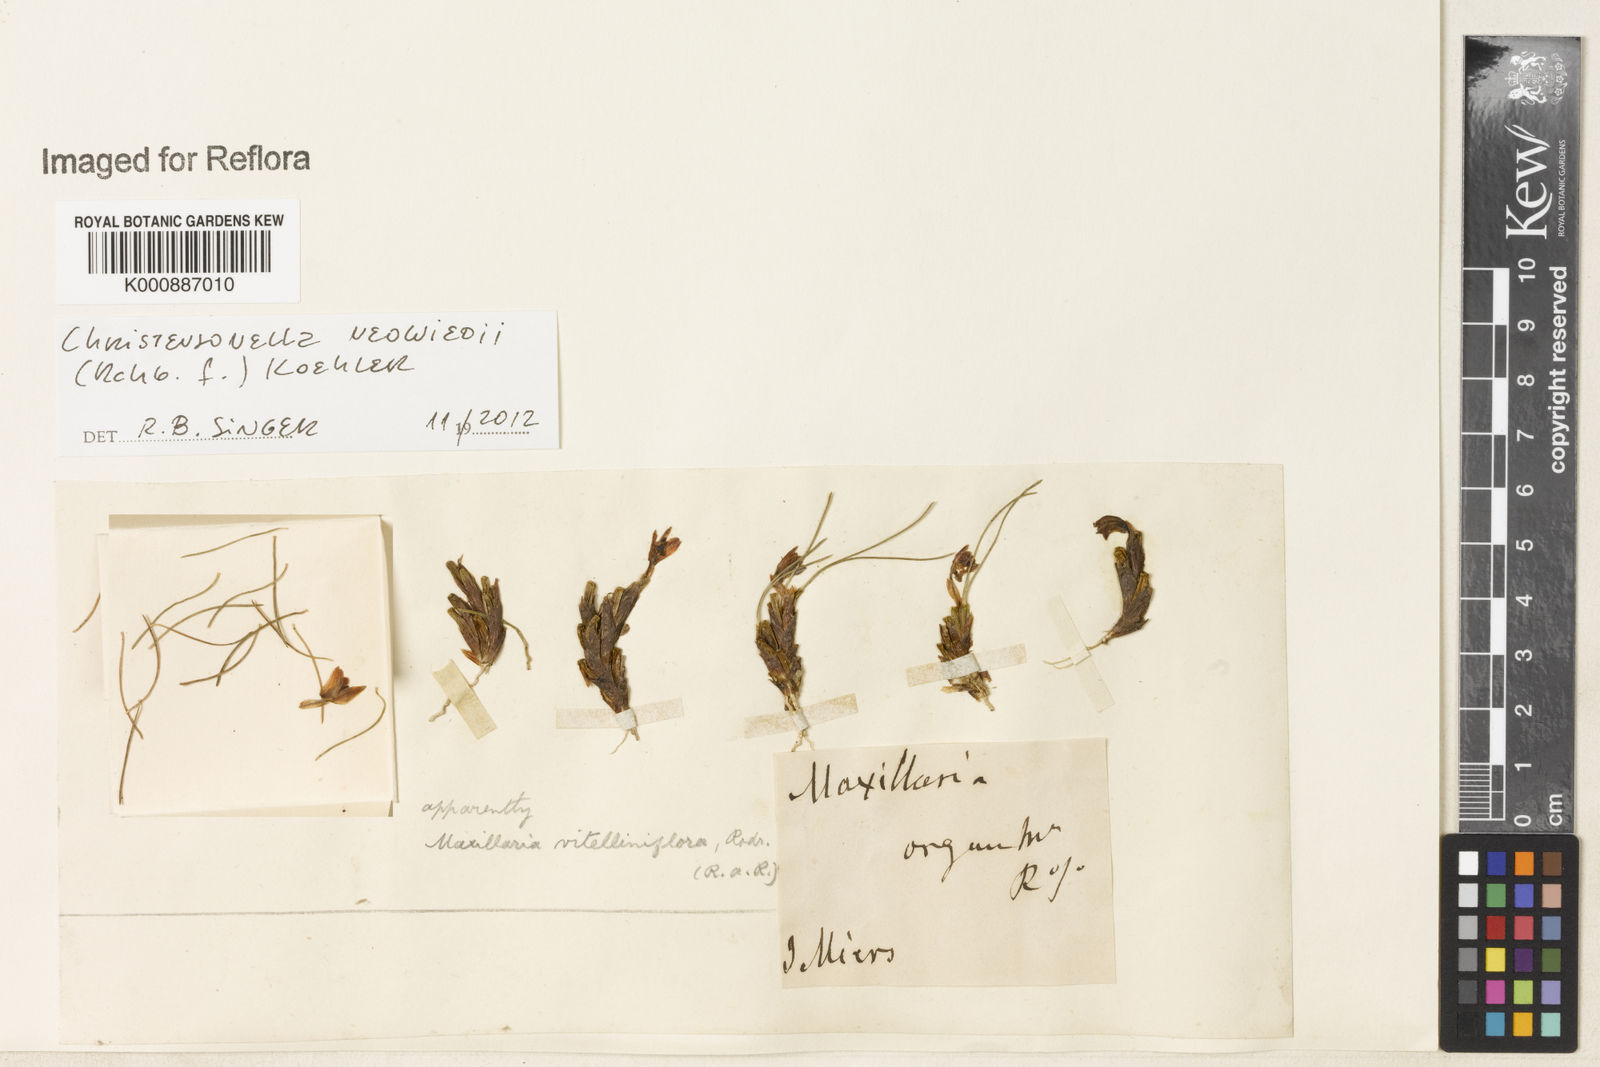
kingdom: Plantae
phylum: Tracheophyta
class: Liliopsida
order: Asparagales
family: Orchidaceae
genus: Maxillaria
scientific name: Maxillaria neowiedii
